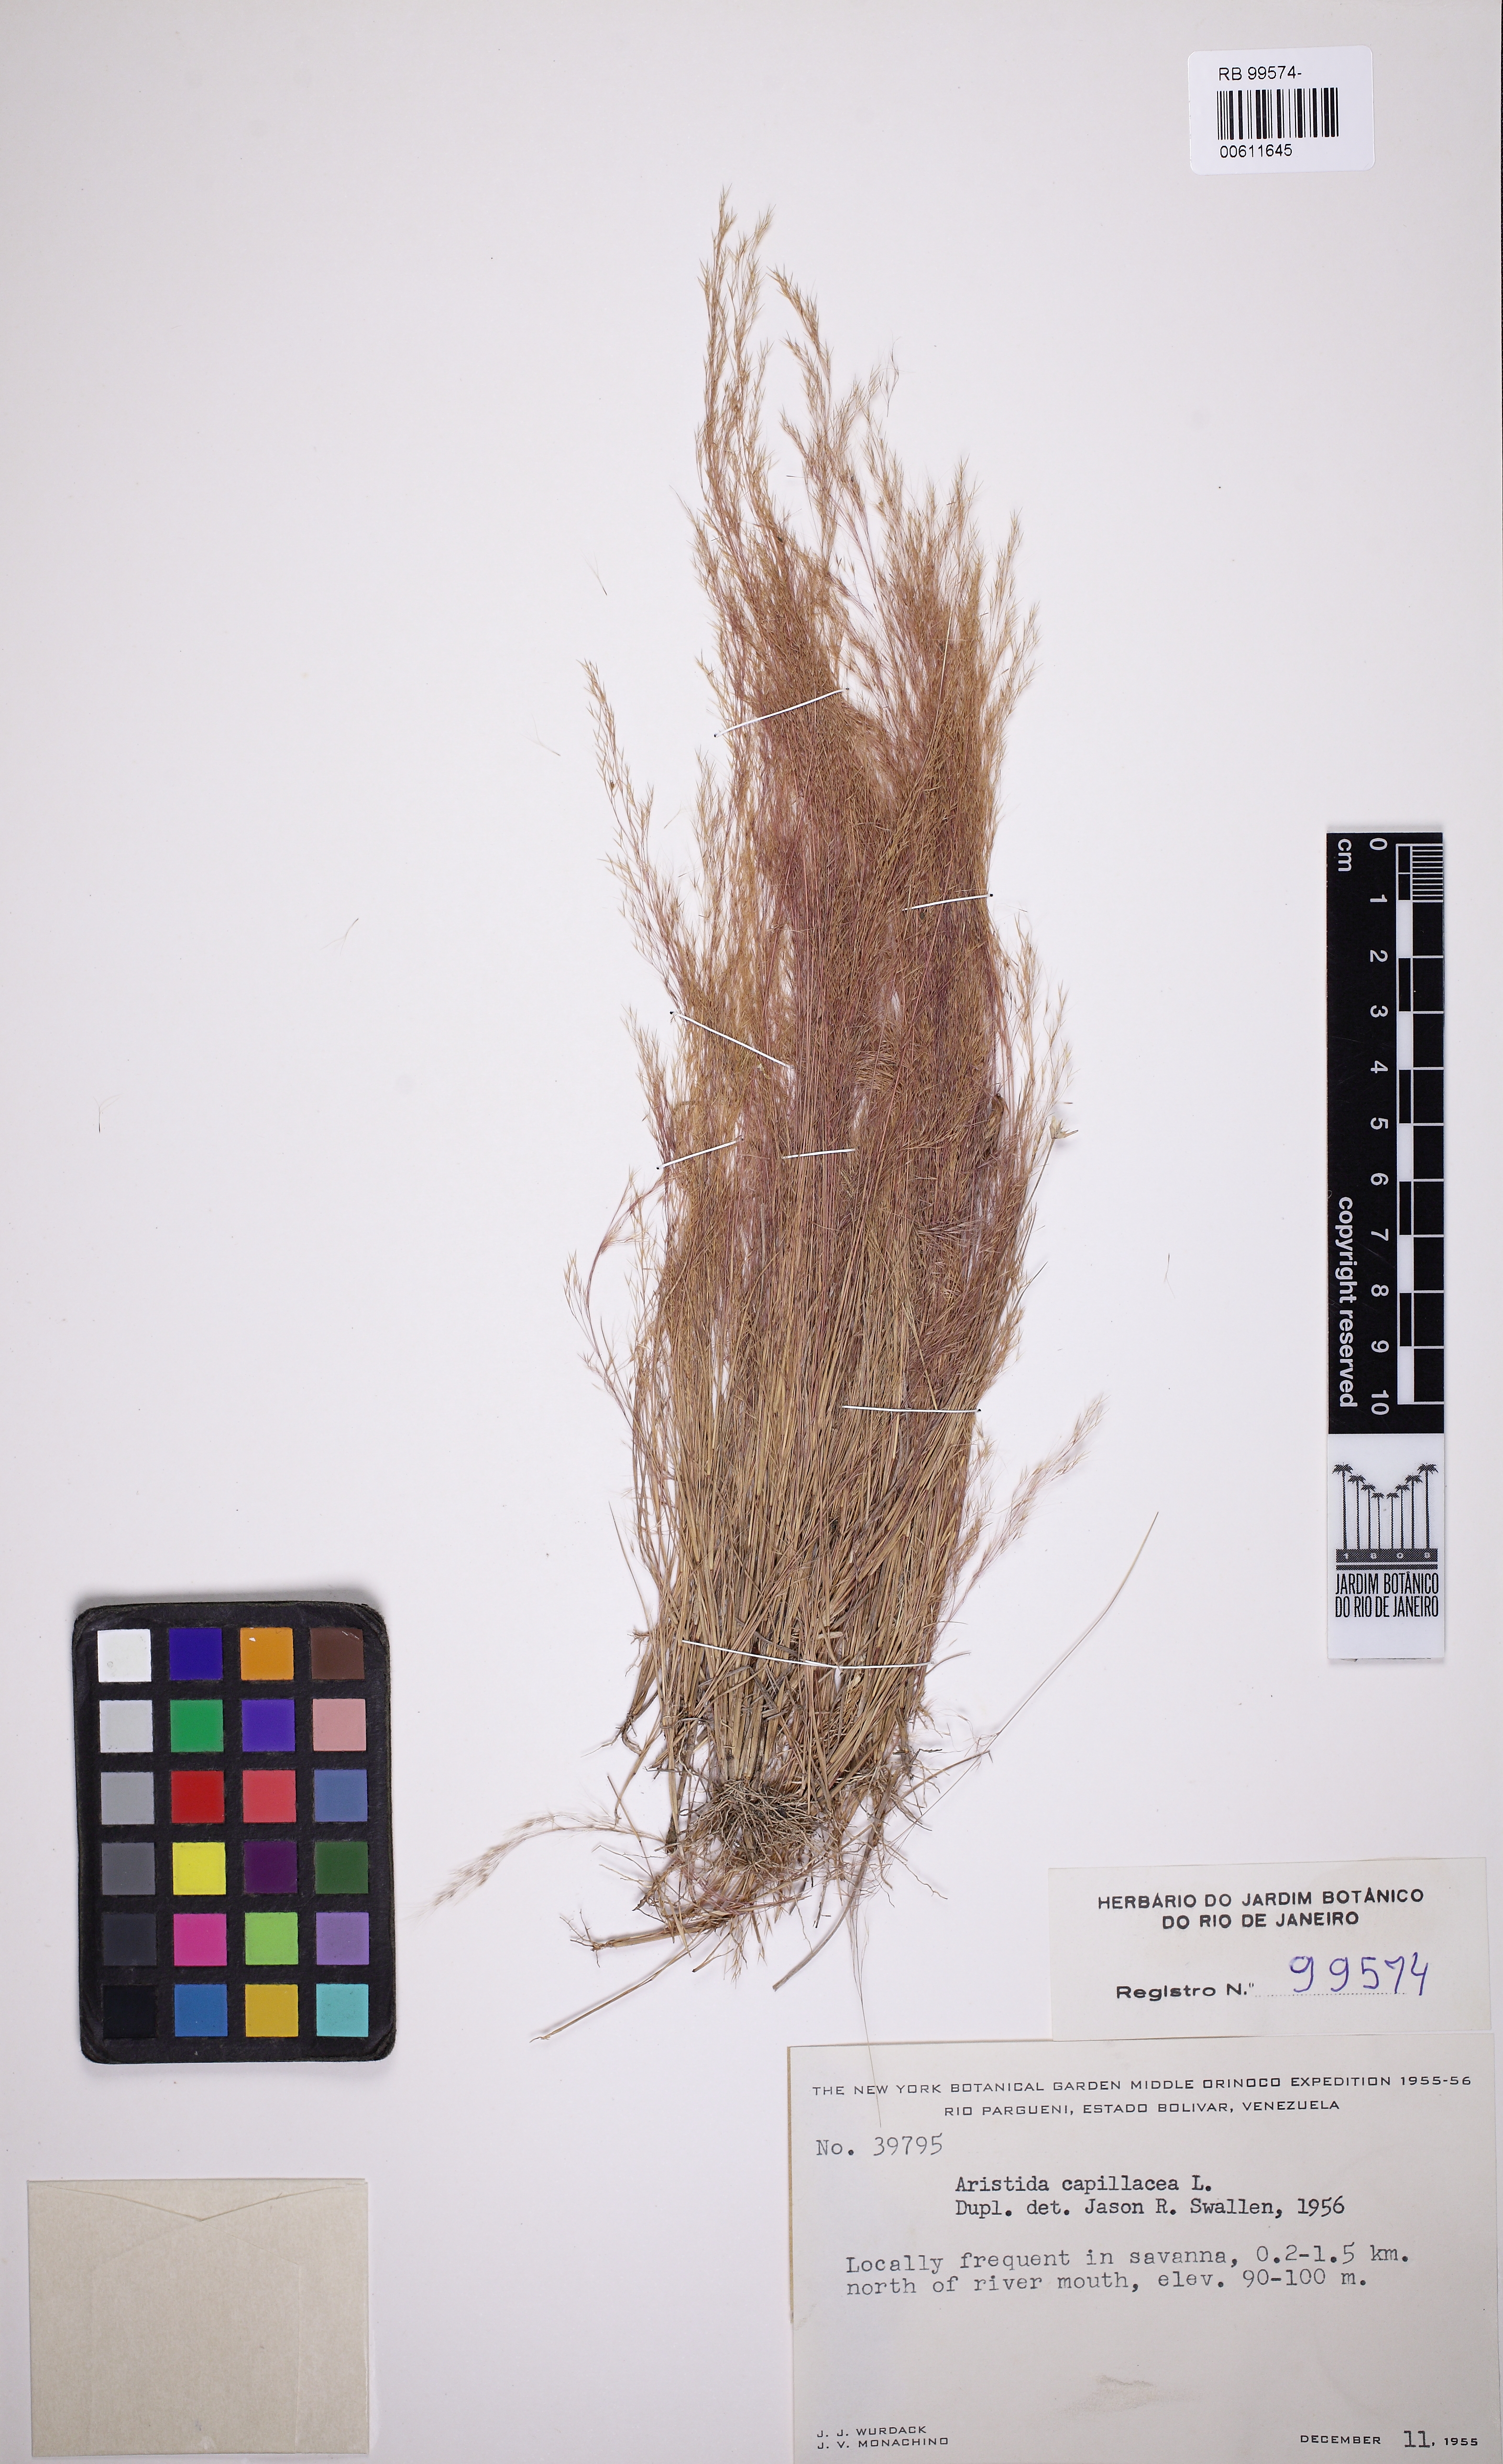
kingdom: Plantae
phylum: Tracheophyta
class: Liliopsida
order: Poales
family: Poaceae
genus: Aristida
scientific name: Aristida capillacea
